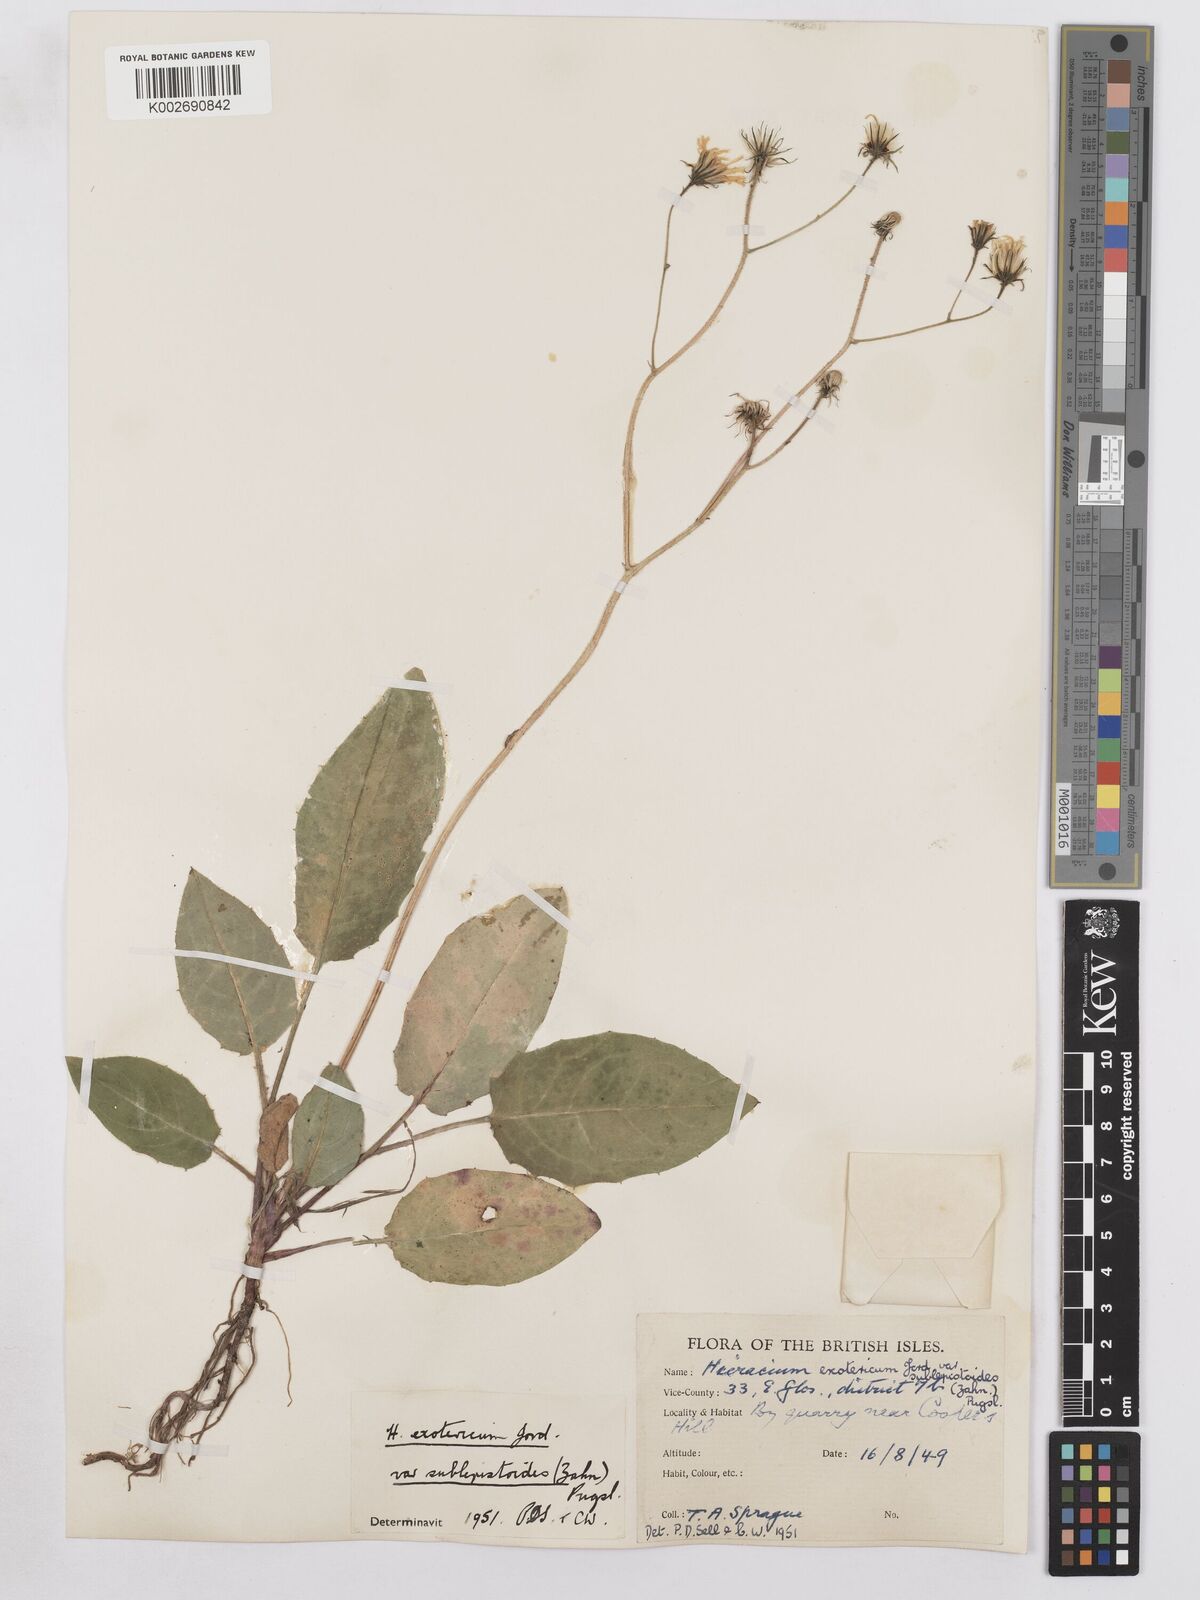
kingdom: Plantae
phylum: Tracheophyta
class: Magnoliopsida
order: Asterales
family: Asteraceae
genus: Hieracium
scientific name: Hieracium murorum
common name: Wall hawkweed
